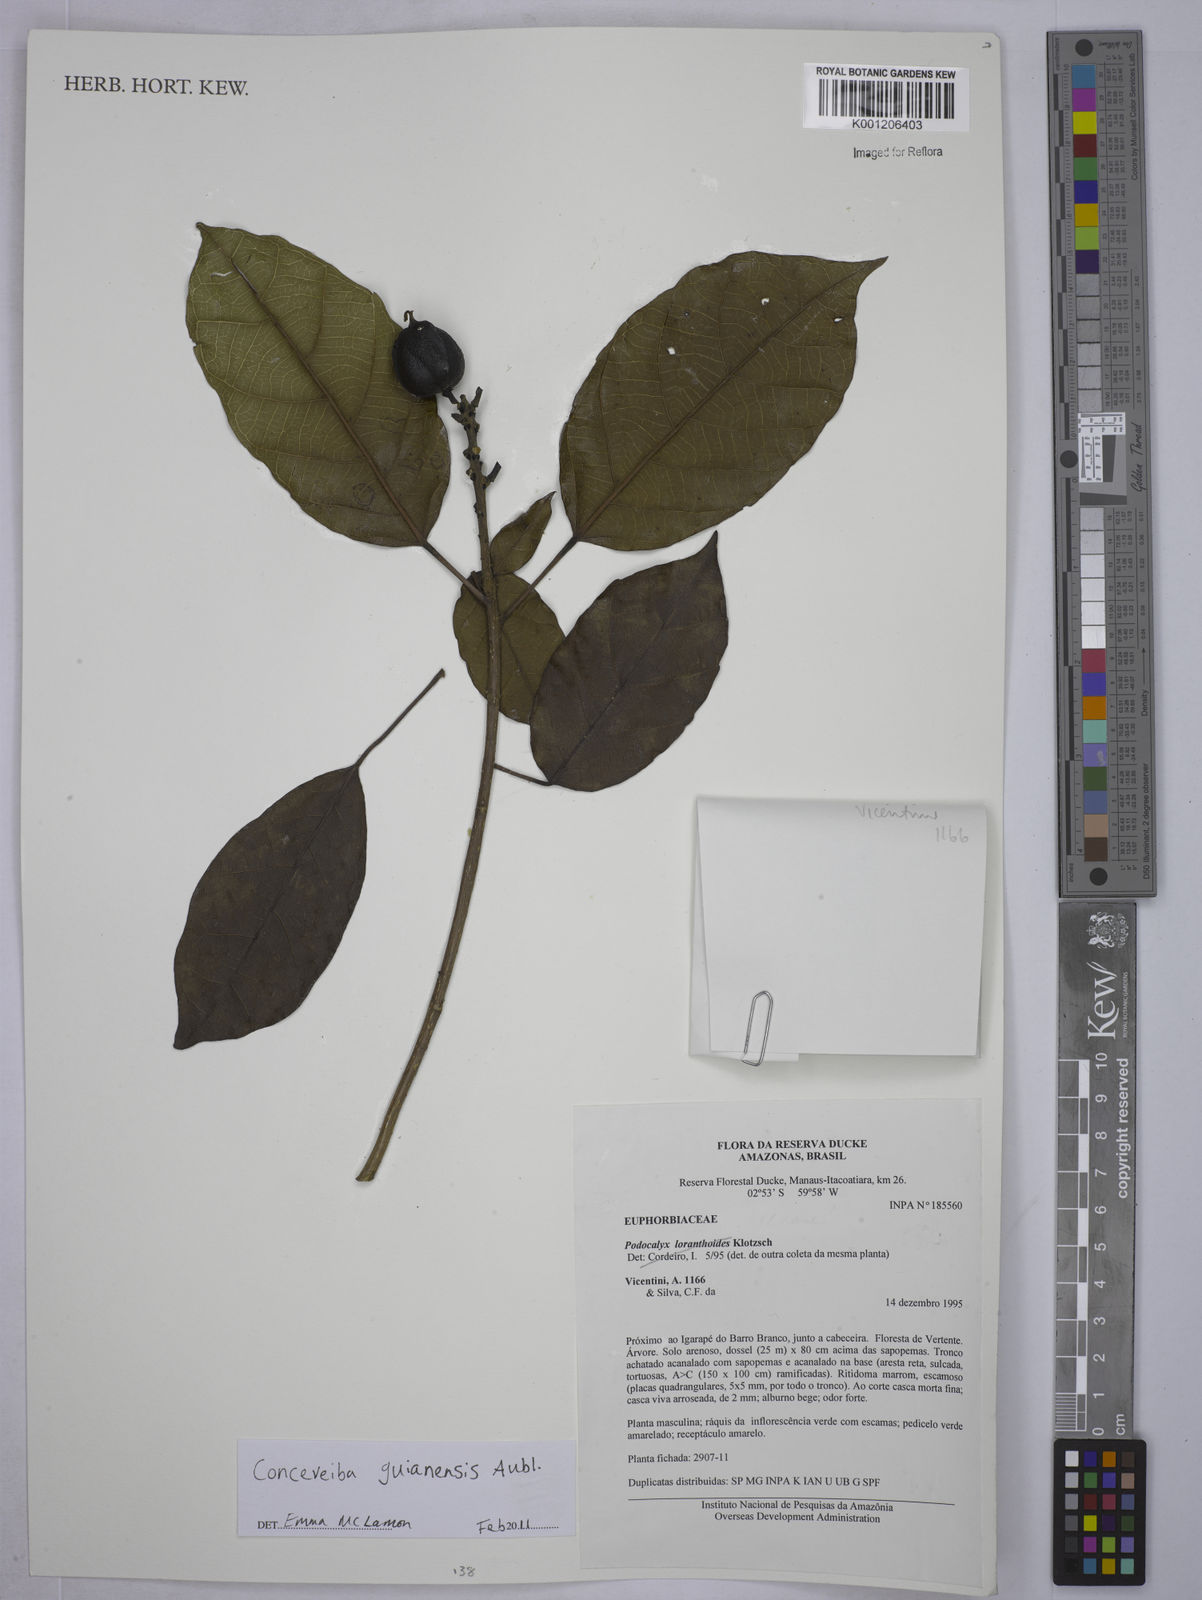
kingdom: Plantae
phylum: Tracheophyta
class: Magnoliopsida
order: Malpighiales
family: Euphorbiaceae
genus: Conceveiba
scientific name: Conceveiba guianensis
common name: Poatoru
